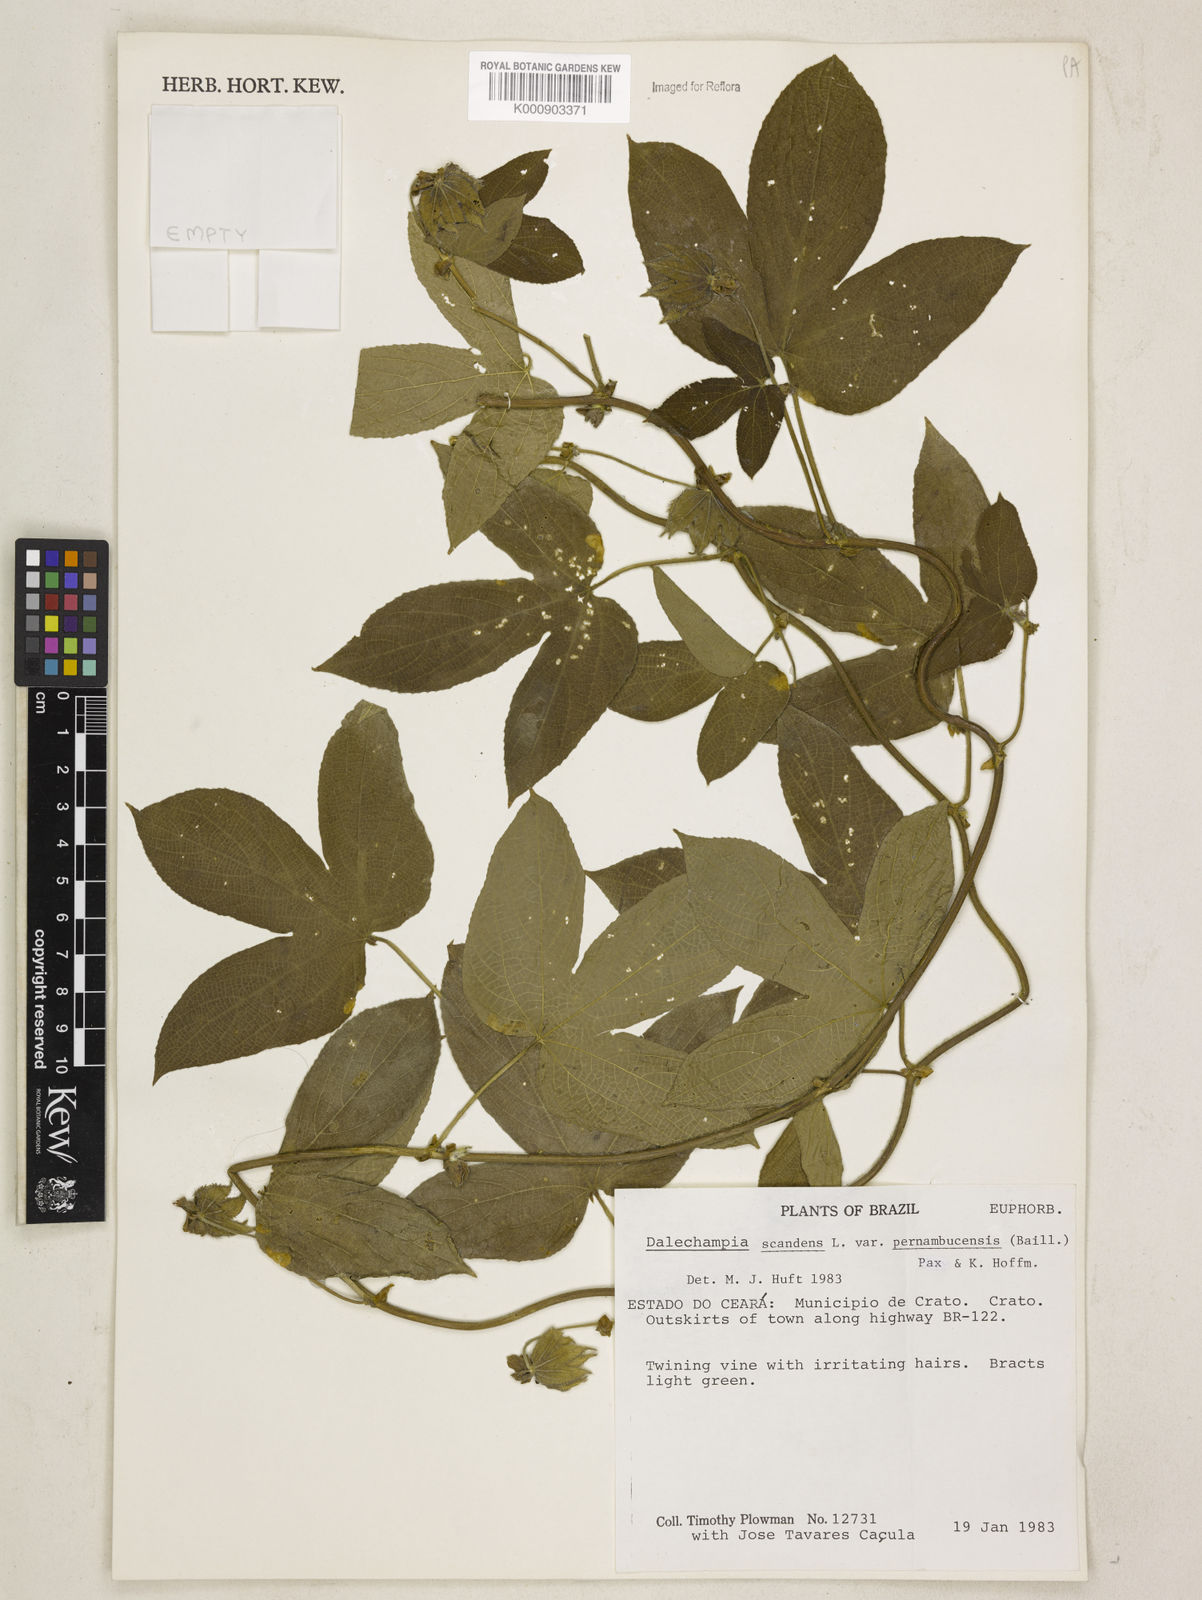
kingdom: Plantae
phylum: Tracheophyta
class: Magnoliopsida
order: Malpighiales
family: Euphorbiaceae
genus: Dalechampia
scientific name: Dalechampia pernambucensis
